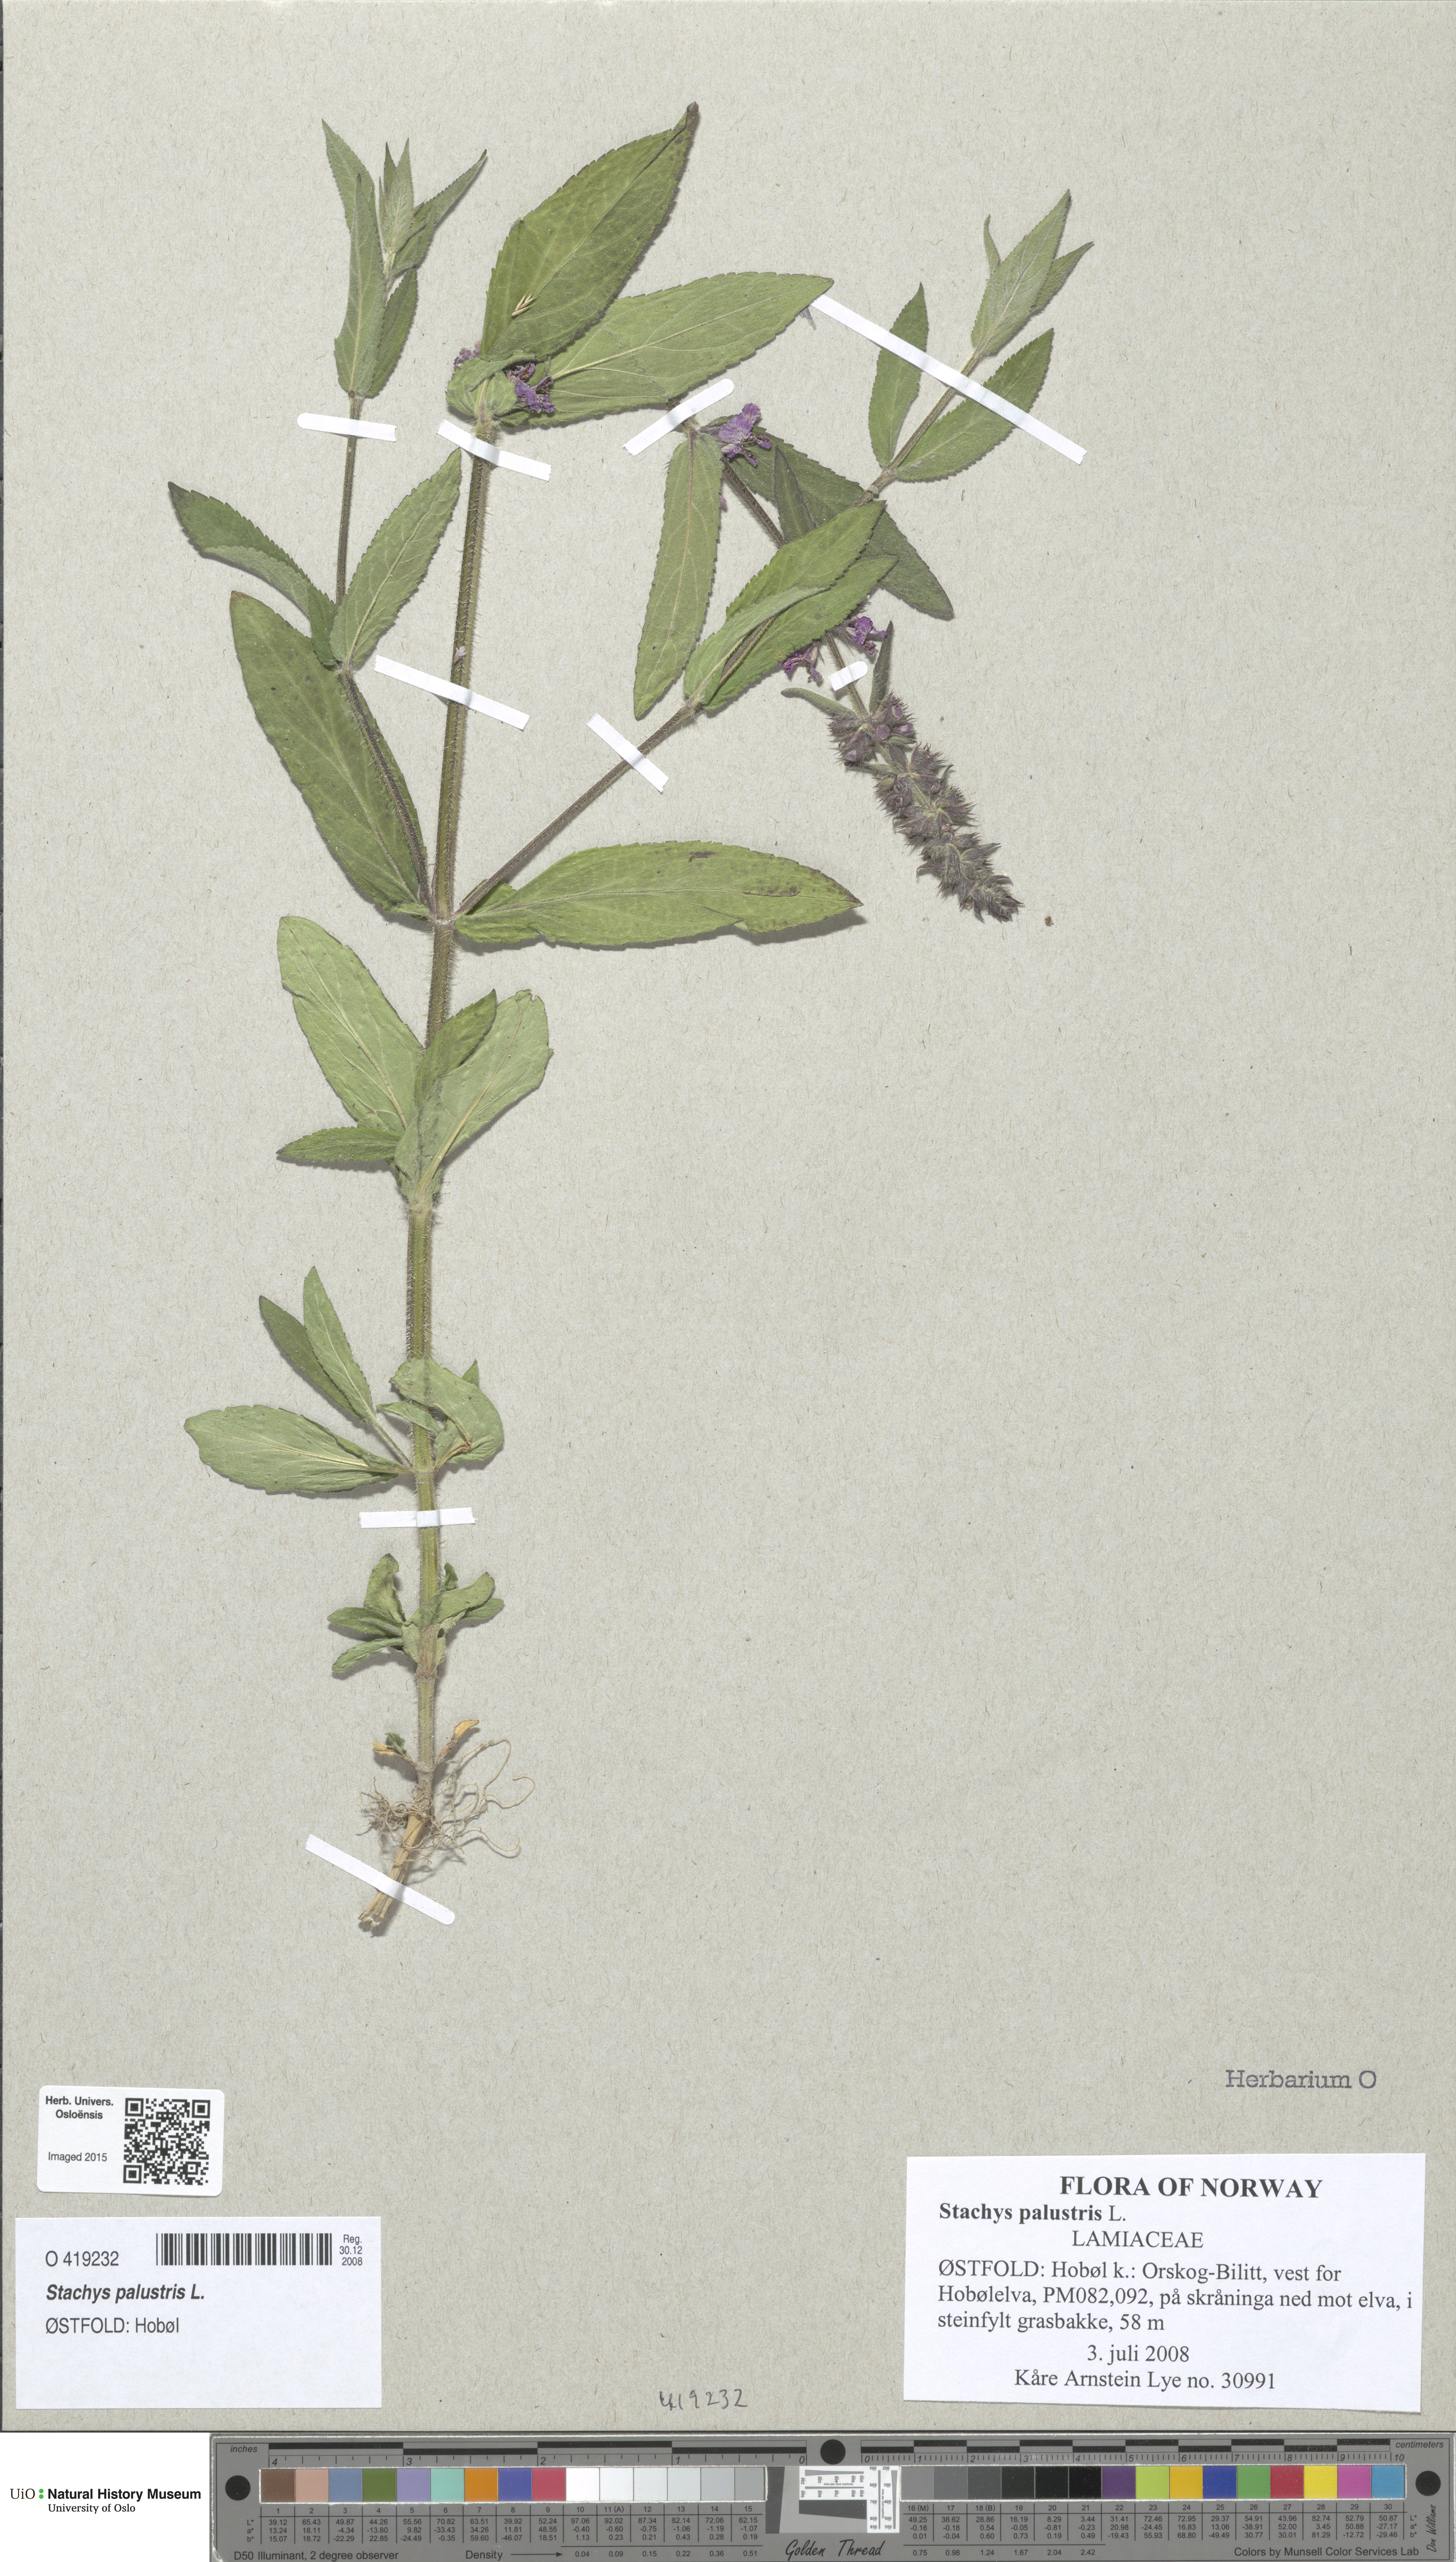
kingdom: Plantae
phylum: Tracheophyta
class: Magnoliopsida
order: Lamiales
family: Lamiaceae
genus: Stachys
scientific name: Stachys palustris
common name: Marsh woundwort
